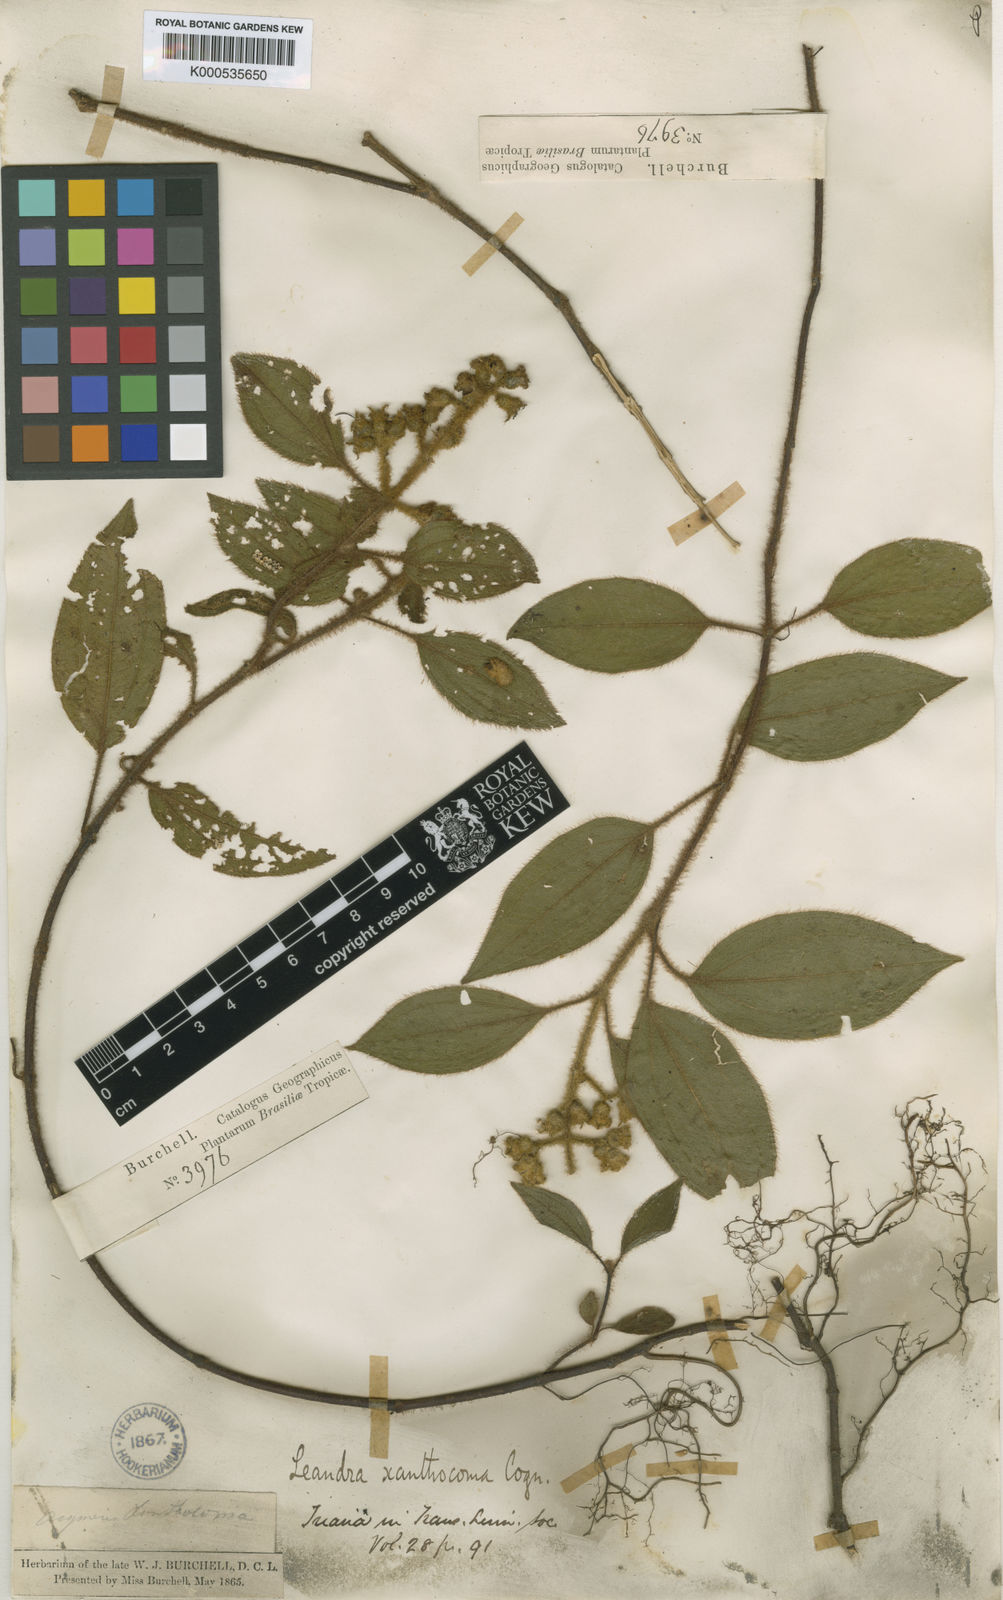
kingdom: Plantae
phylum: Tracheophyta
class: Magnoliopsida
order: Myrtales
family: Melastomataceae
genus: Miconia
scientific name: Miconia xanthocoma
